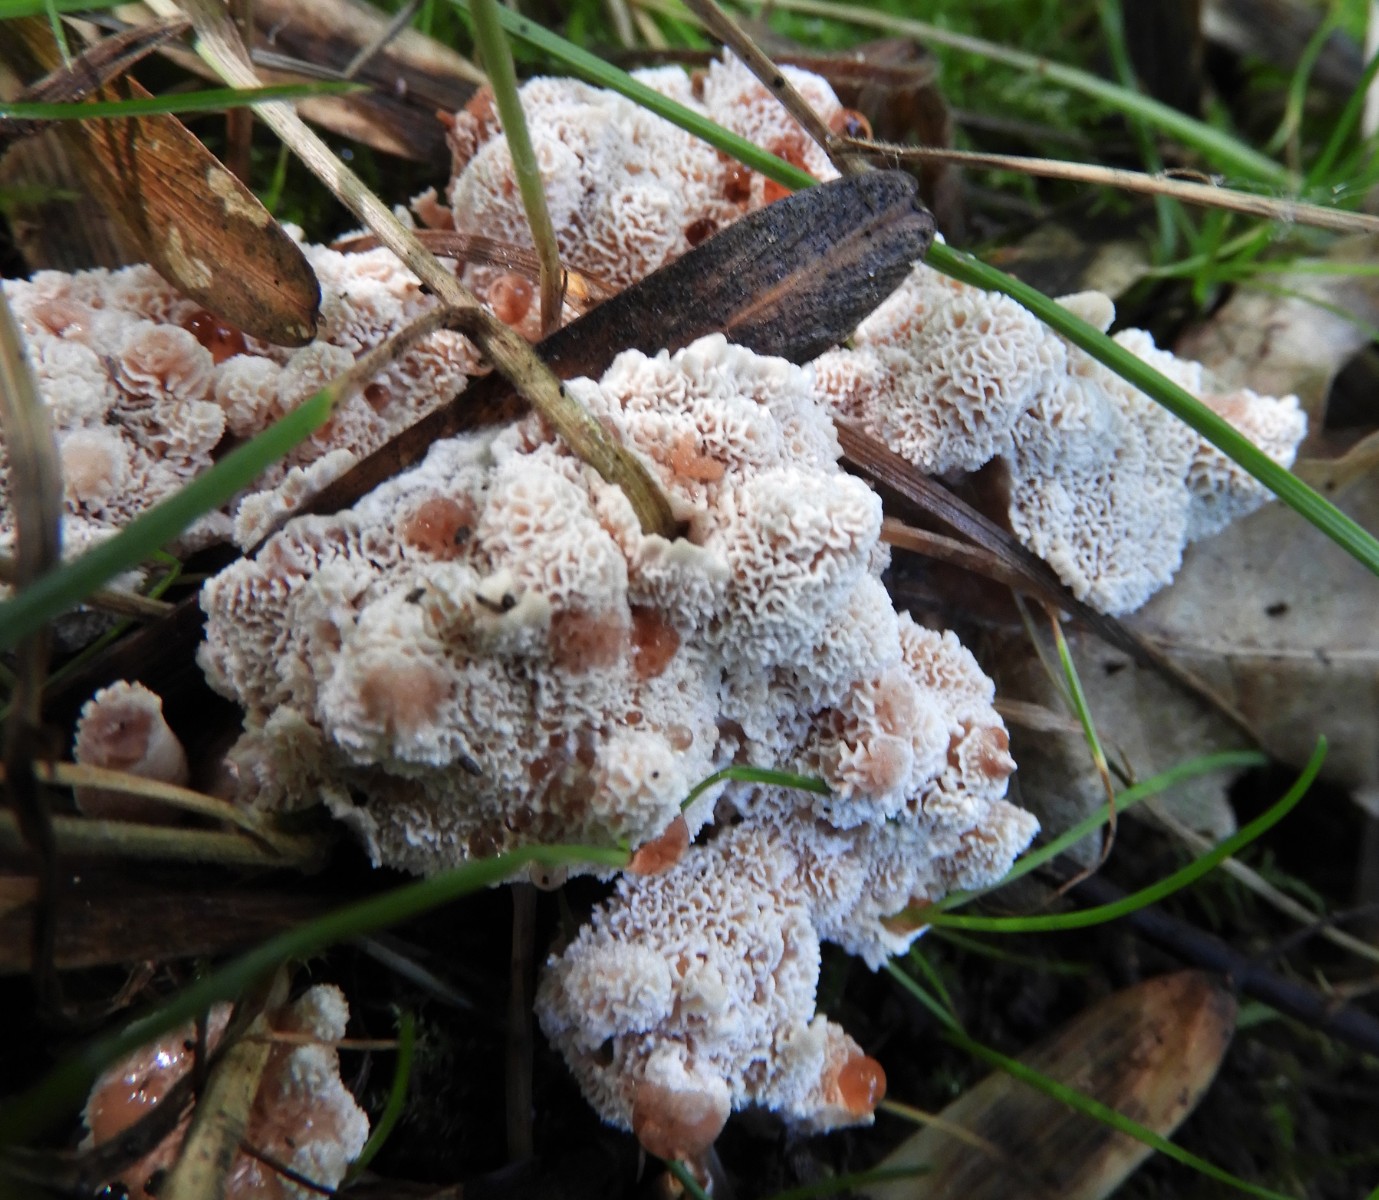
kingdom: Fungi
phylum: Basidiomycota
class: Agaricomycetes
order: Polyporales
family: Podoscyphaceae
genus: Abortiporus
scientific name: Abortiporus biennis
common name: rødmende pjalteporesvamp
